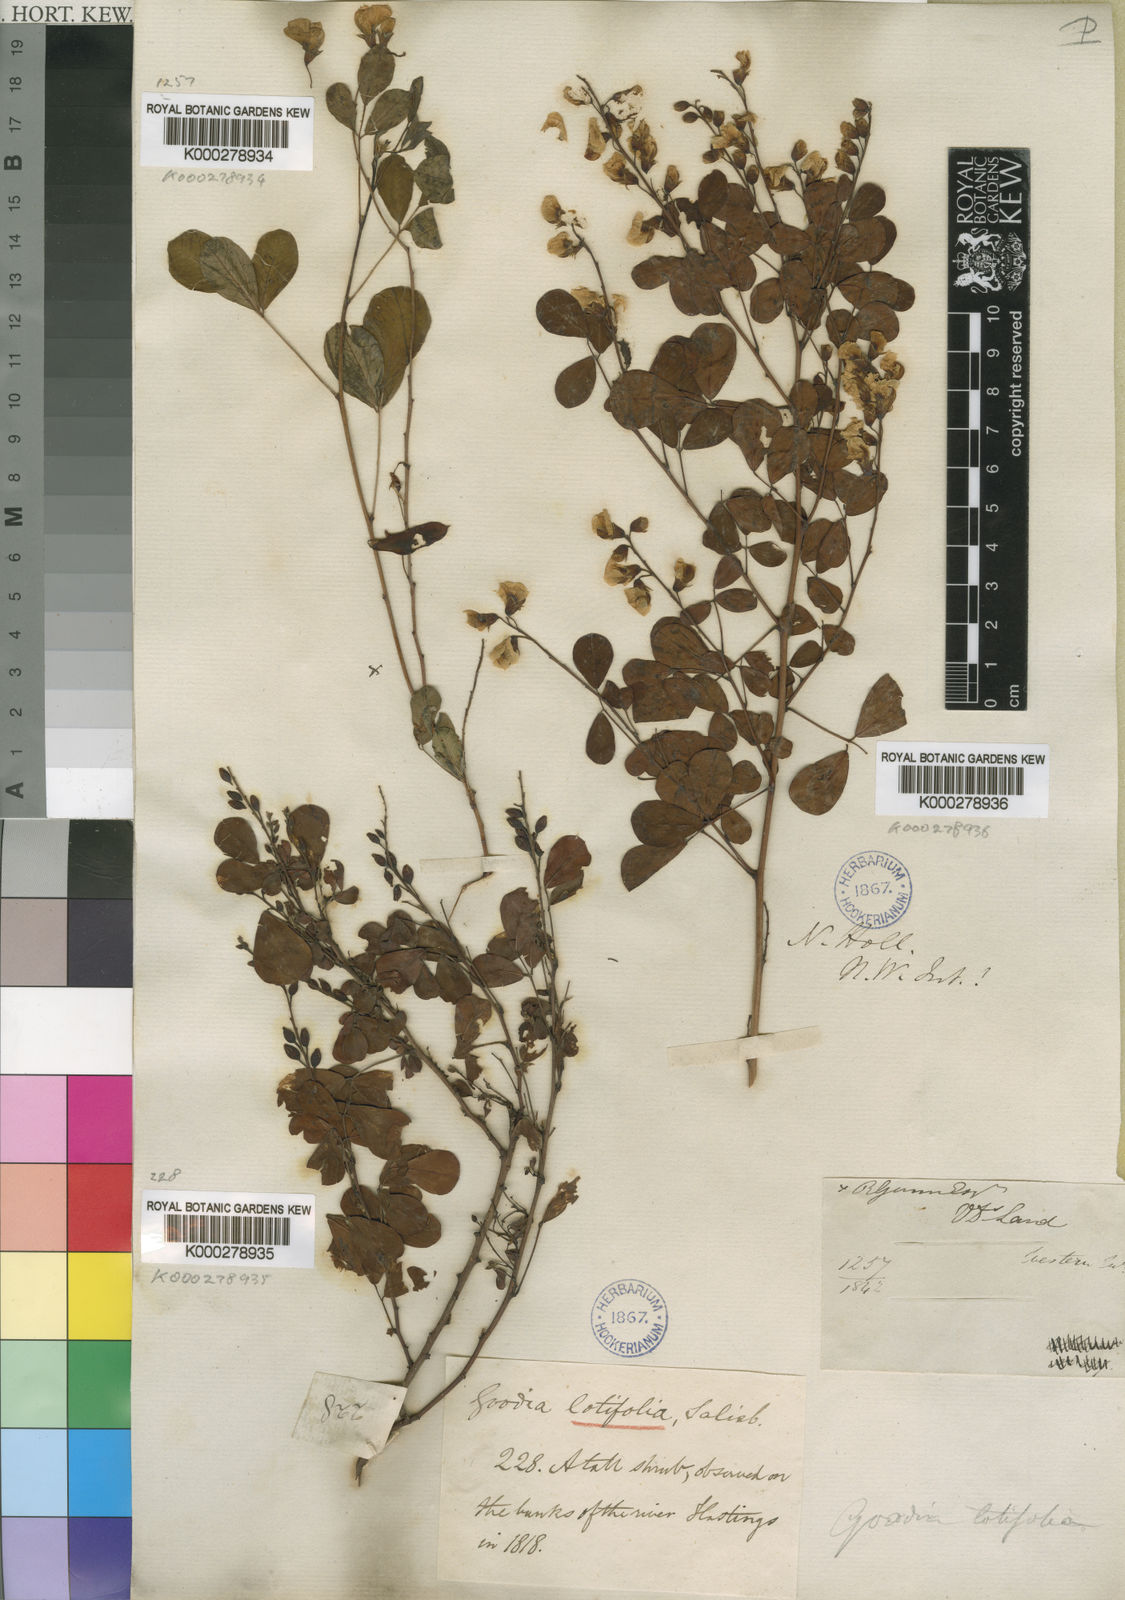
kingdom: Plantae
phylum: Tracheophyta
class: Magnoliopsida
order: Fabales
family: Fabaceae
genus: Goodia
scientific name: Goodia lotifolia
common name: Cloverleaf-poison
